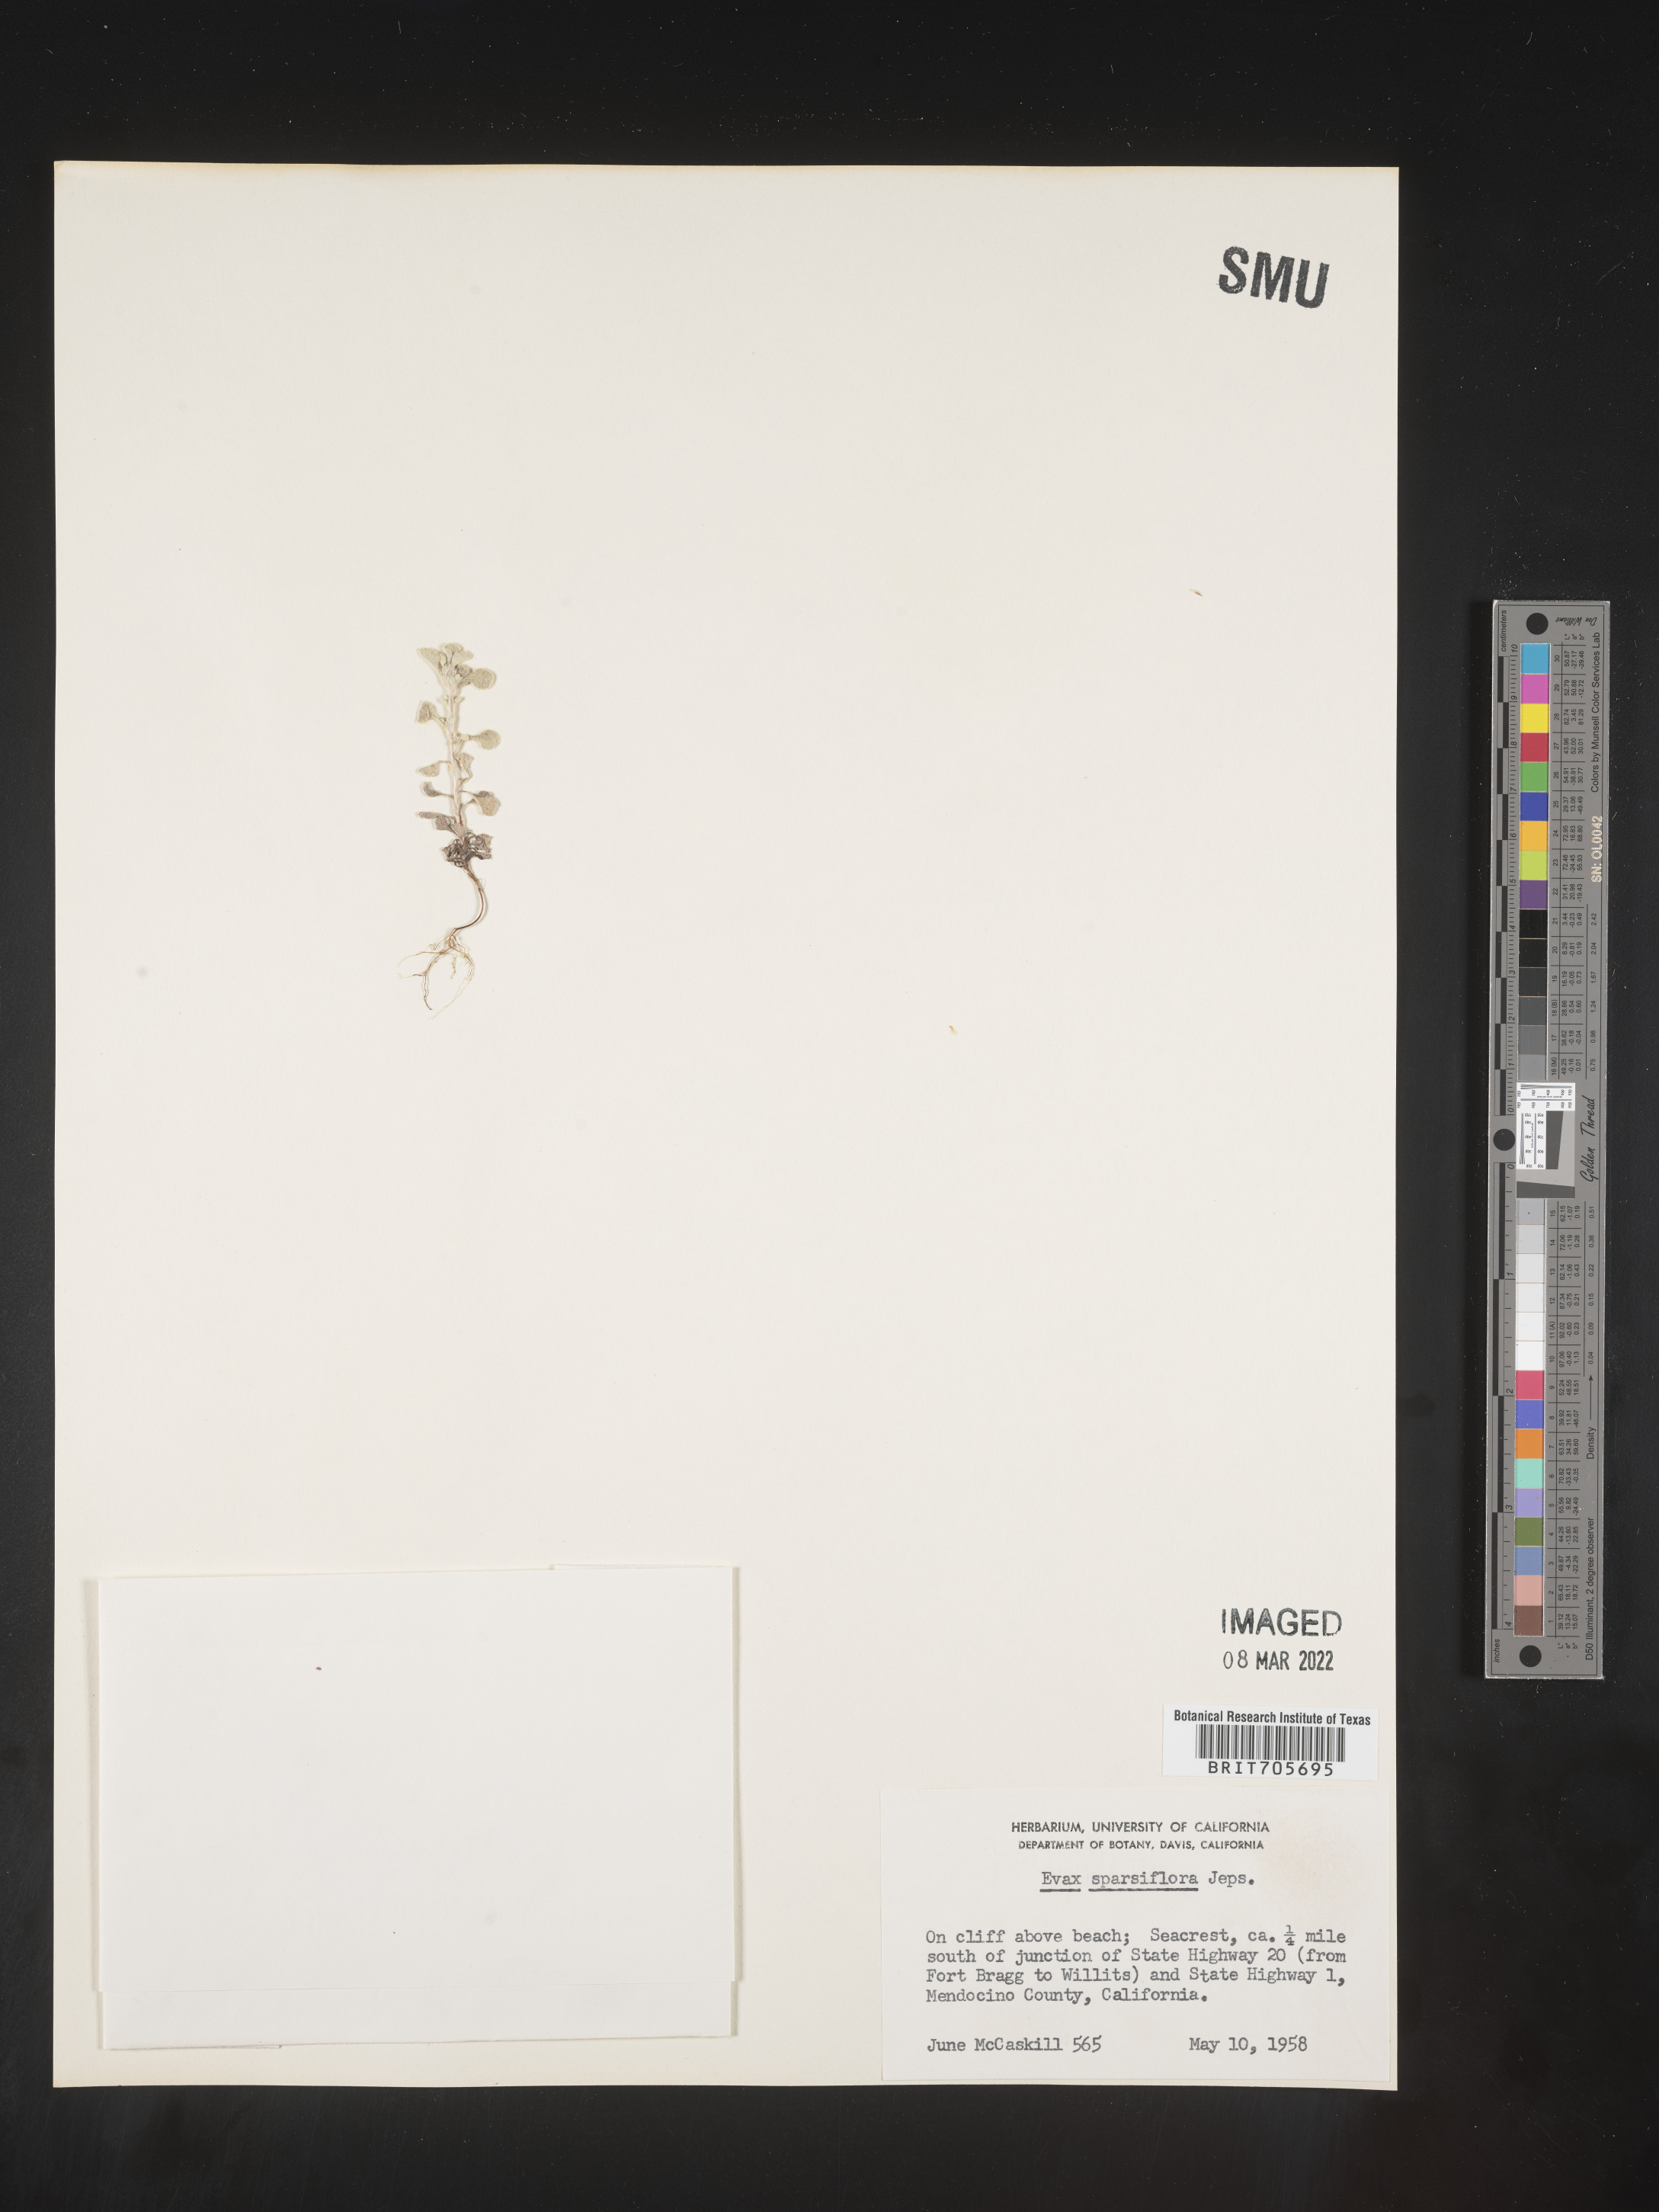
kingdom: Plantae
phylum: Tracheophyta
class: Magnoliopsida
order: Asterales
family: Asteraceae
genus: Hesperevax
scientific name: Hesperevax sparsiflora
